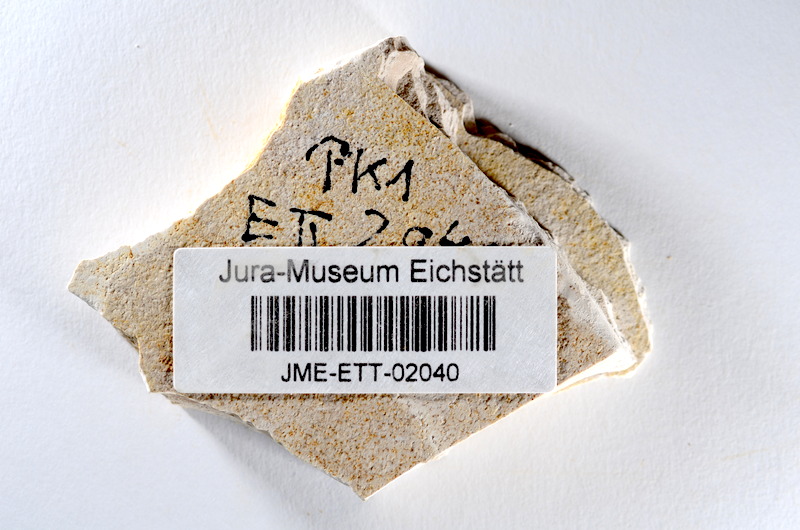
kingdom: Animalia
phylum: Chordata
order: Salmoniformes
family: Orthogonikleithridae
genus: Orthogonikleithrus
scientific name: Orthogonikleithrus hoelli
